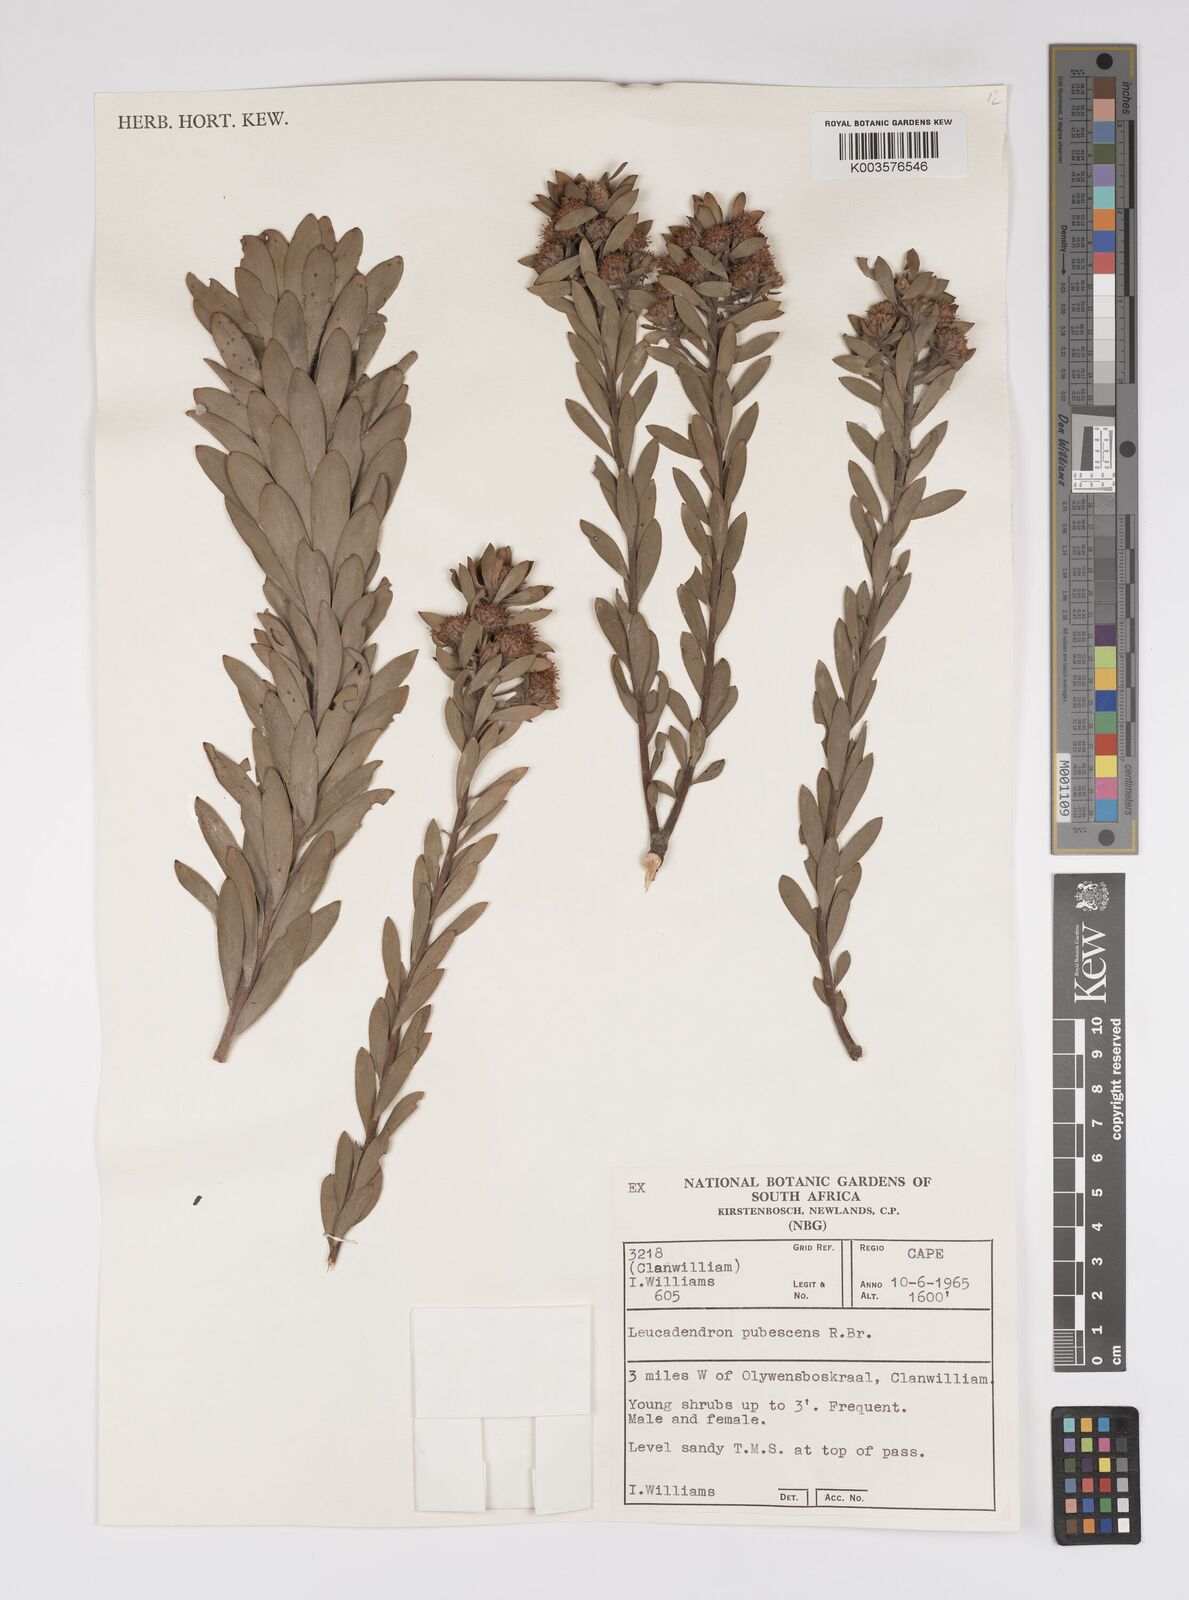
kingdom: Plantae
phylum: Tracheophyta
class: Magnoliopsida
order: Proteales
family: Proteaceae
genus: Leucadendron
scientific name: Leucadendron pubescens
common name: Grey conebush
